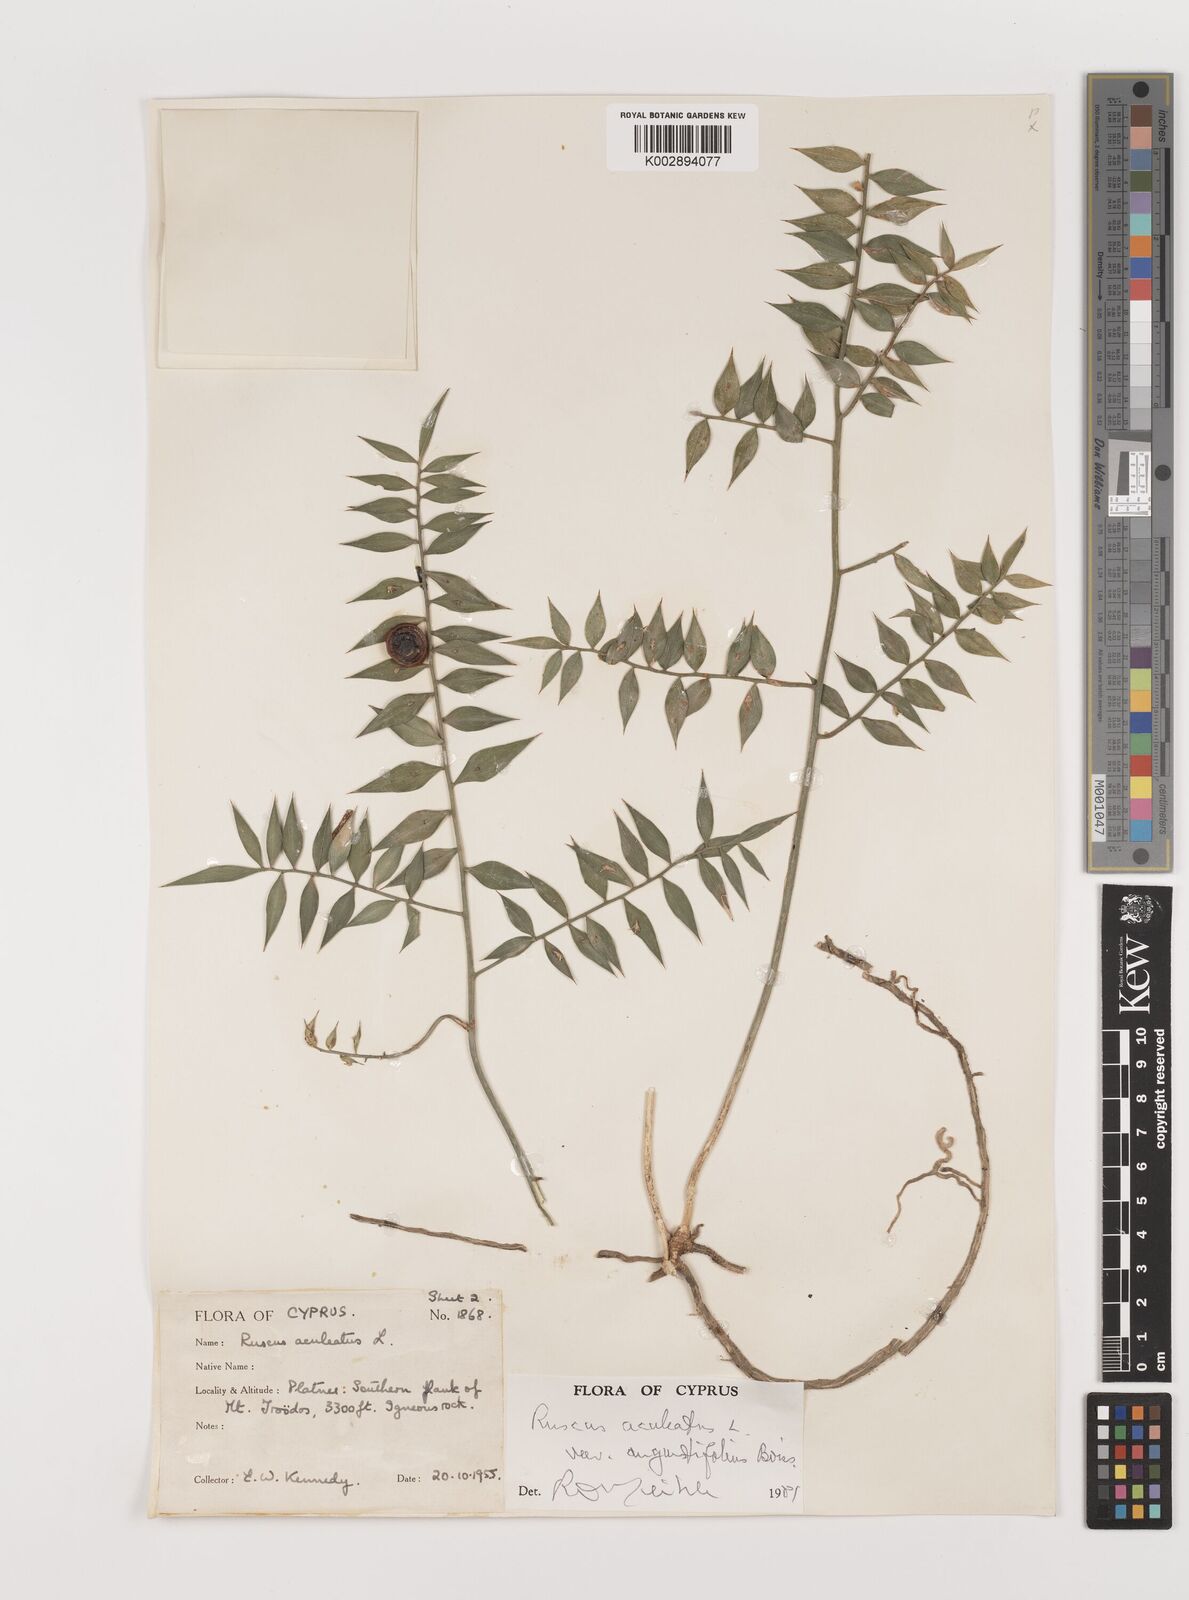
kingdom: Plantae
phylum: Tracheophyta
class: Liliopsida
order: Asparagales
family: Asparagaceae
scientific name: Asparagaceae
